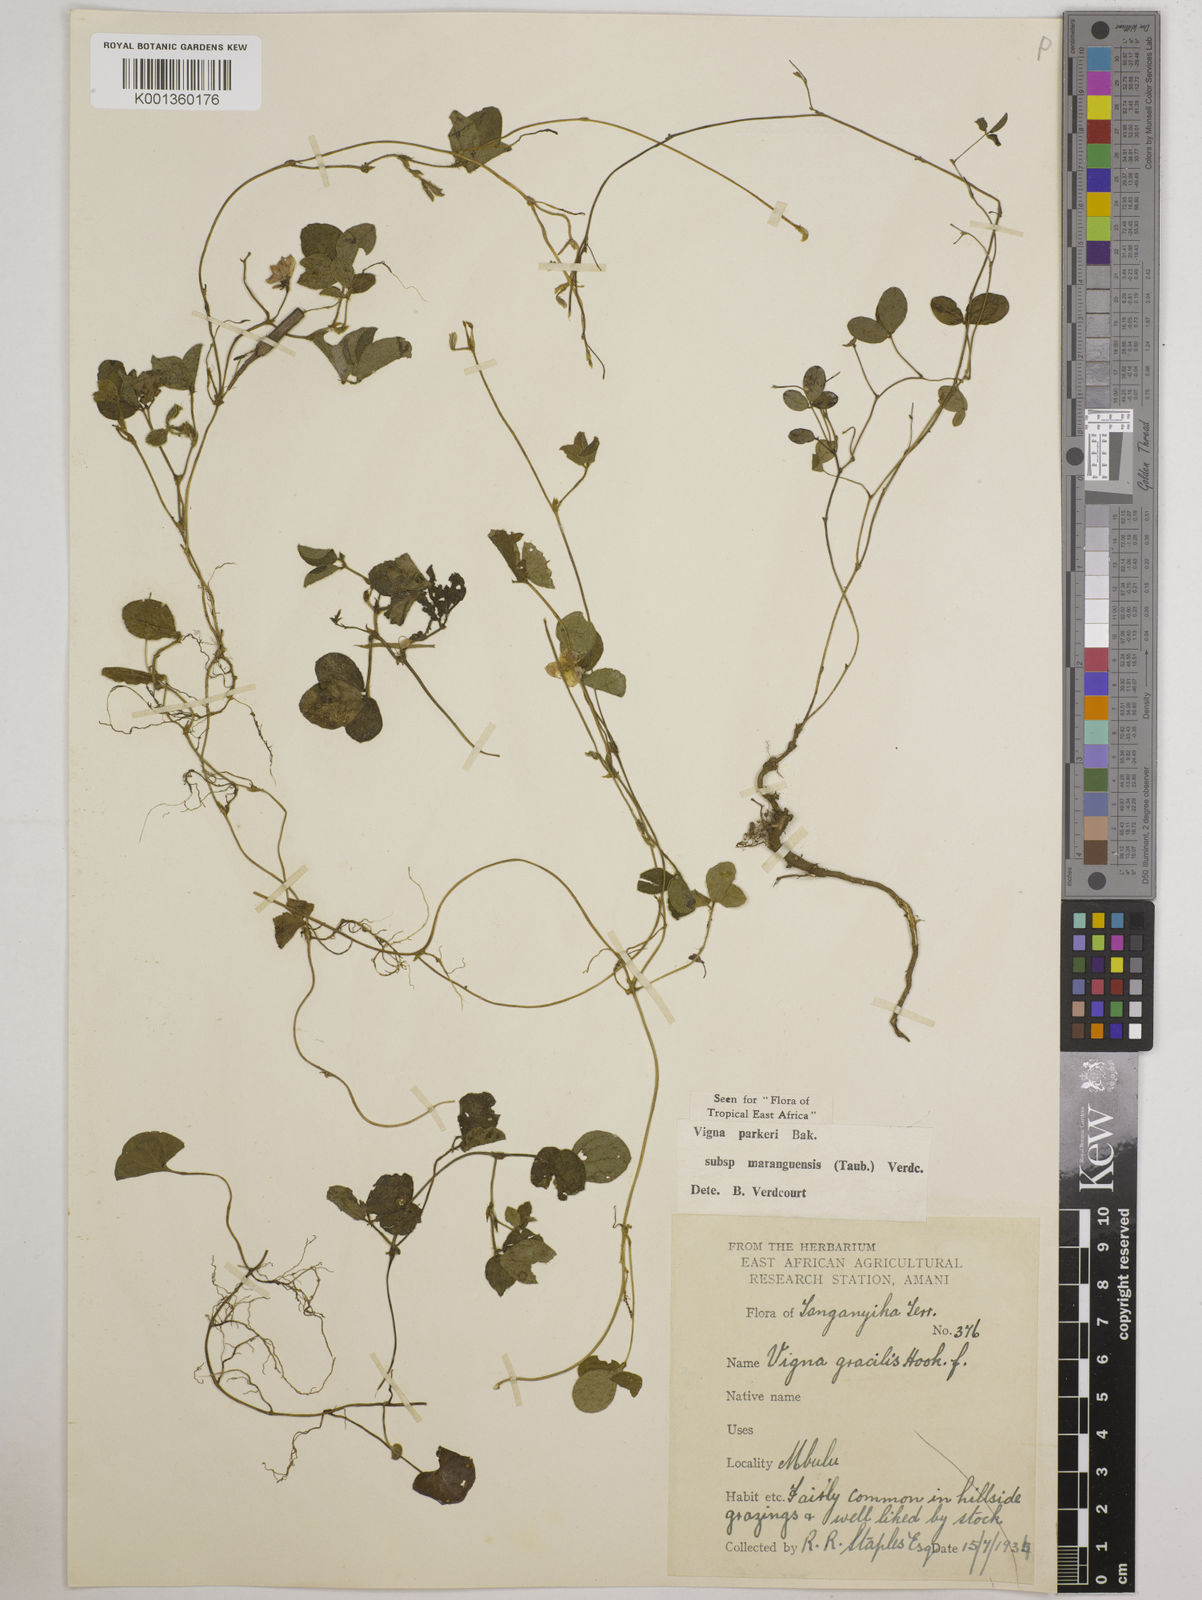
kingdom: Plantae
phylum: Tracheophyta
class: Magnoliopsida
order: Fabales
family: Fabaceae
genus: Vigna
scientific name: Vigna
